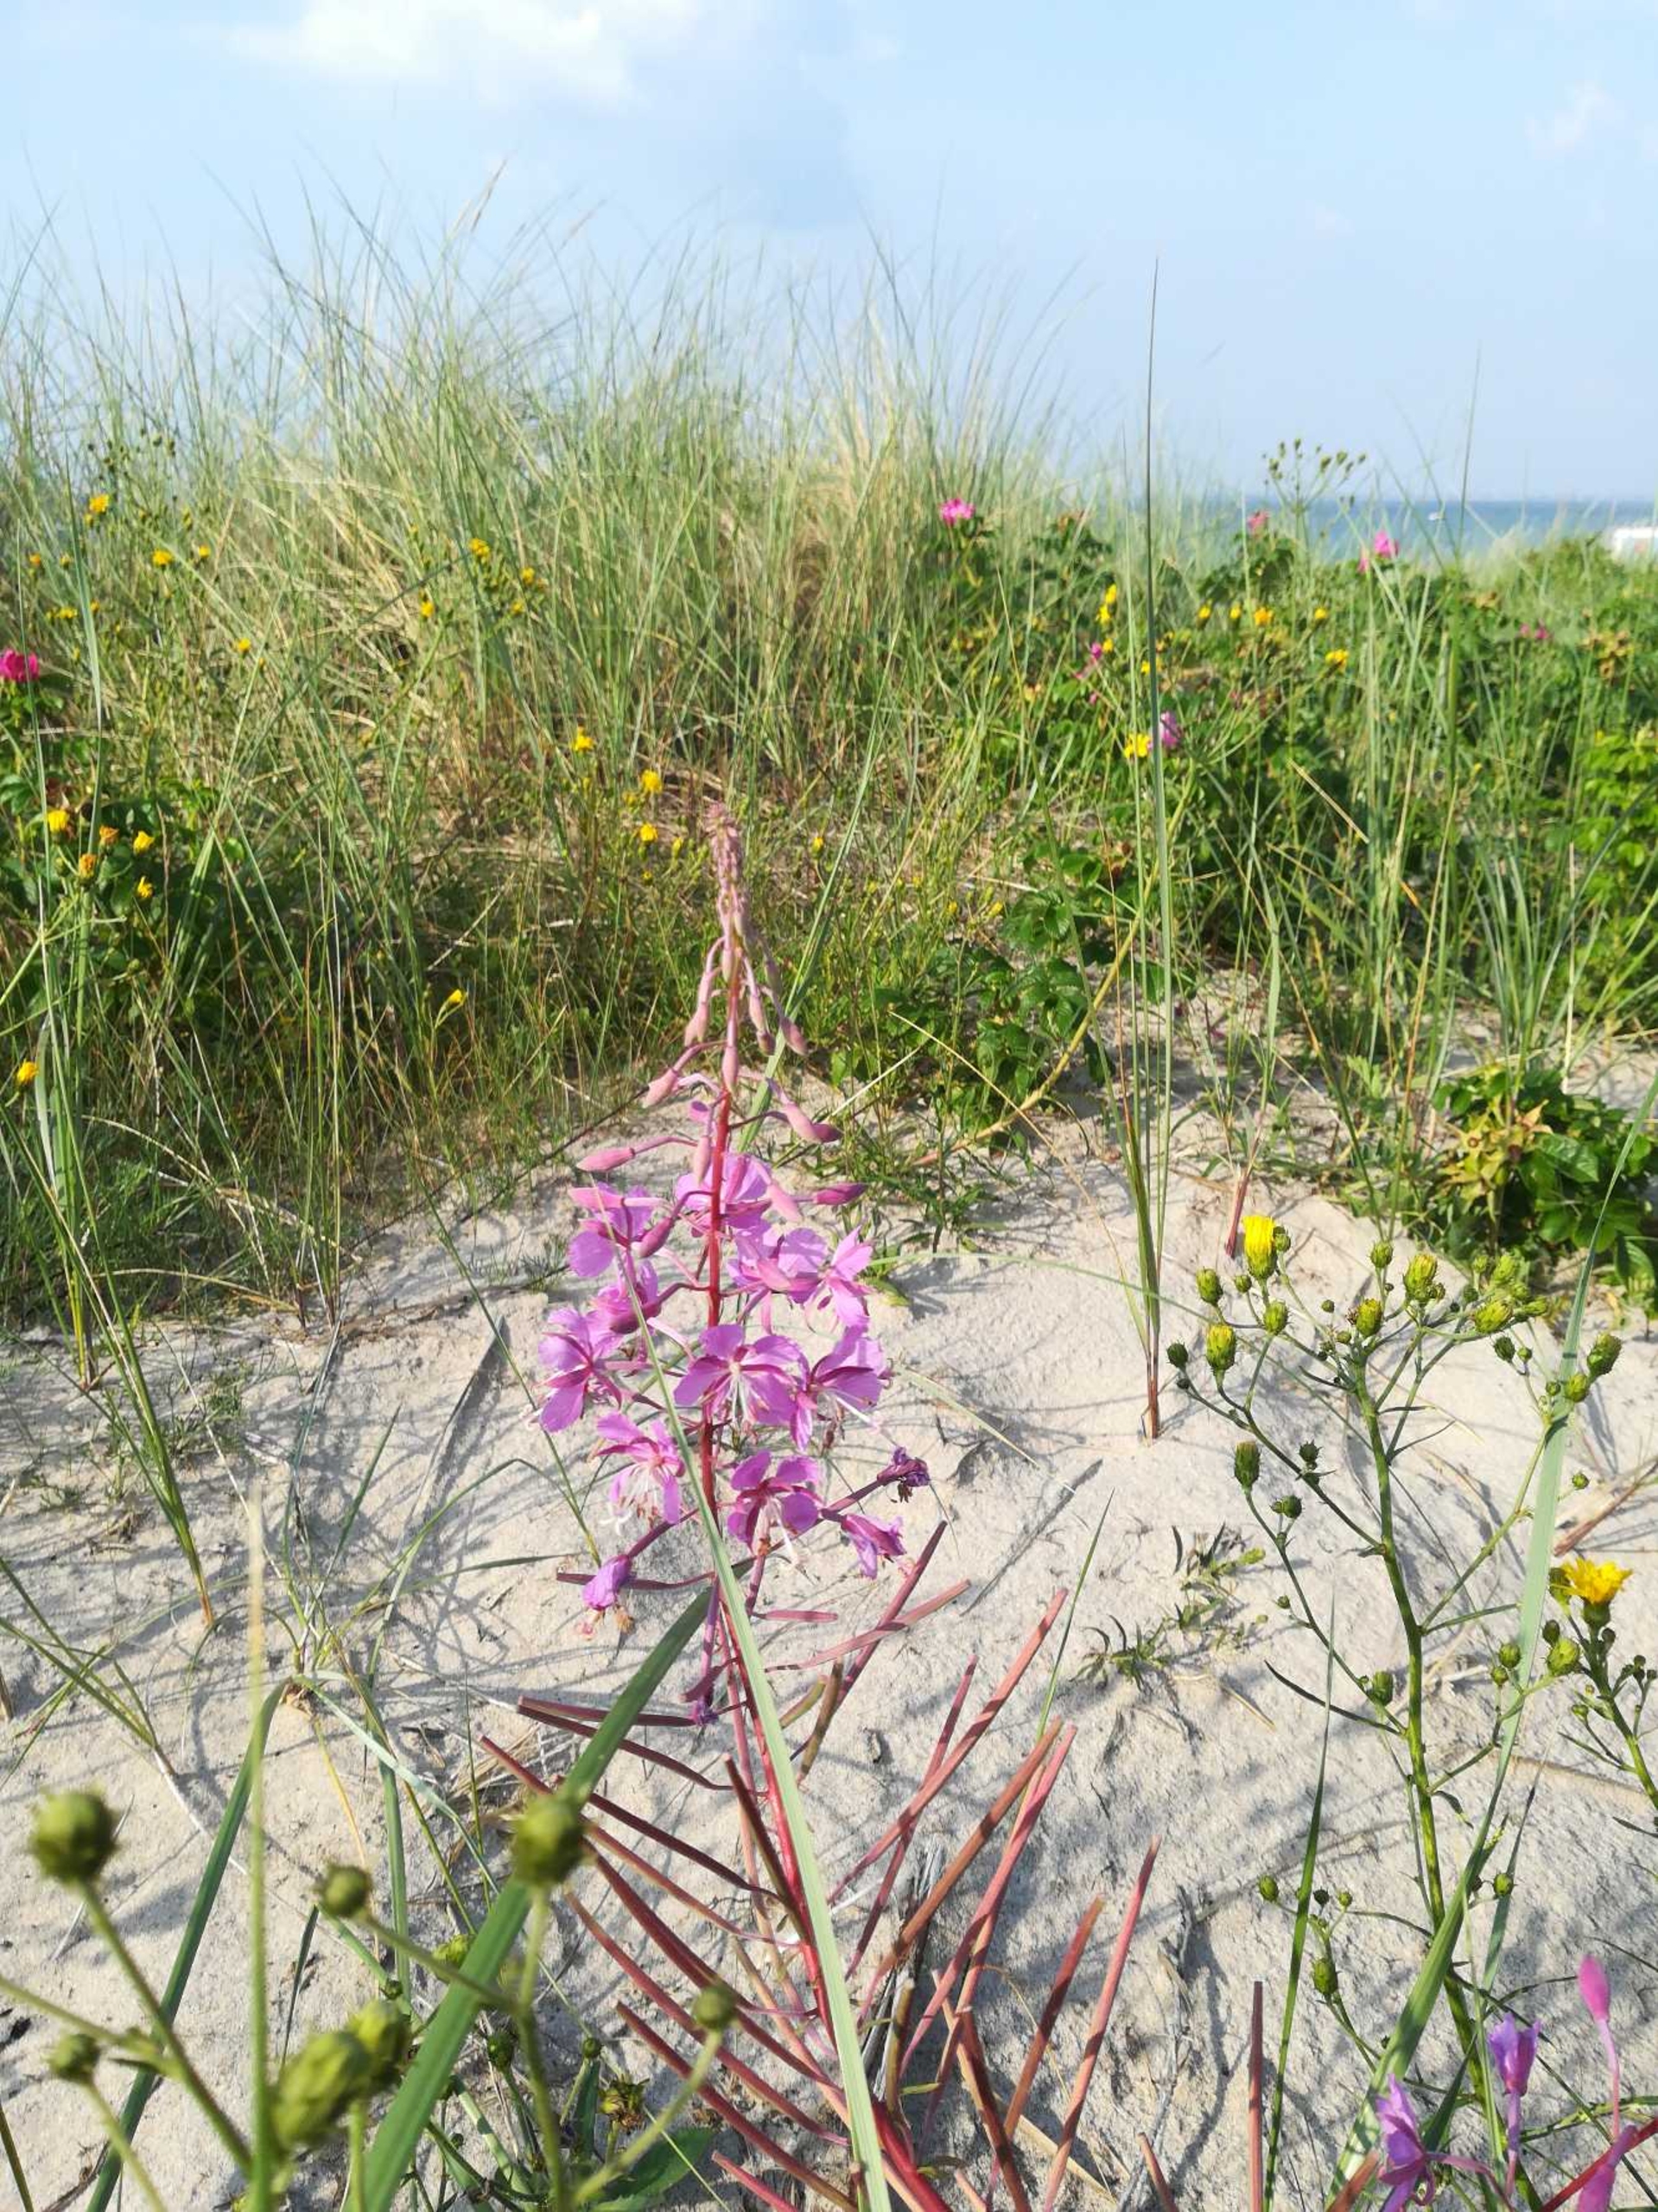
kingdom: Plantae
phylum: Tracheophyta
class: Magnoliopsida
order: Myrtales
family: Onagraceae
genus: Chamaenerion
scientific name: Chamaenerion angustifolium
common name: Gederams
